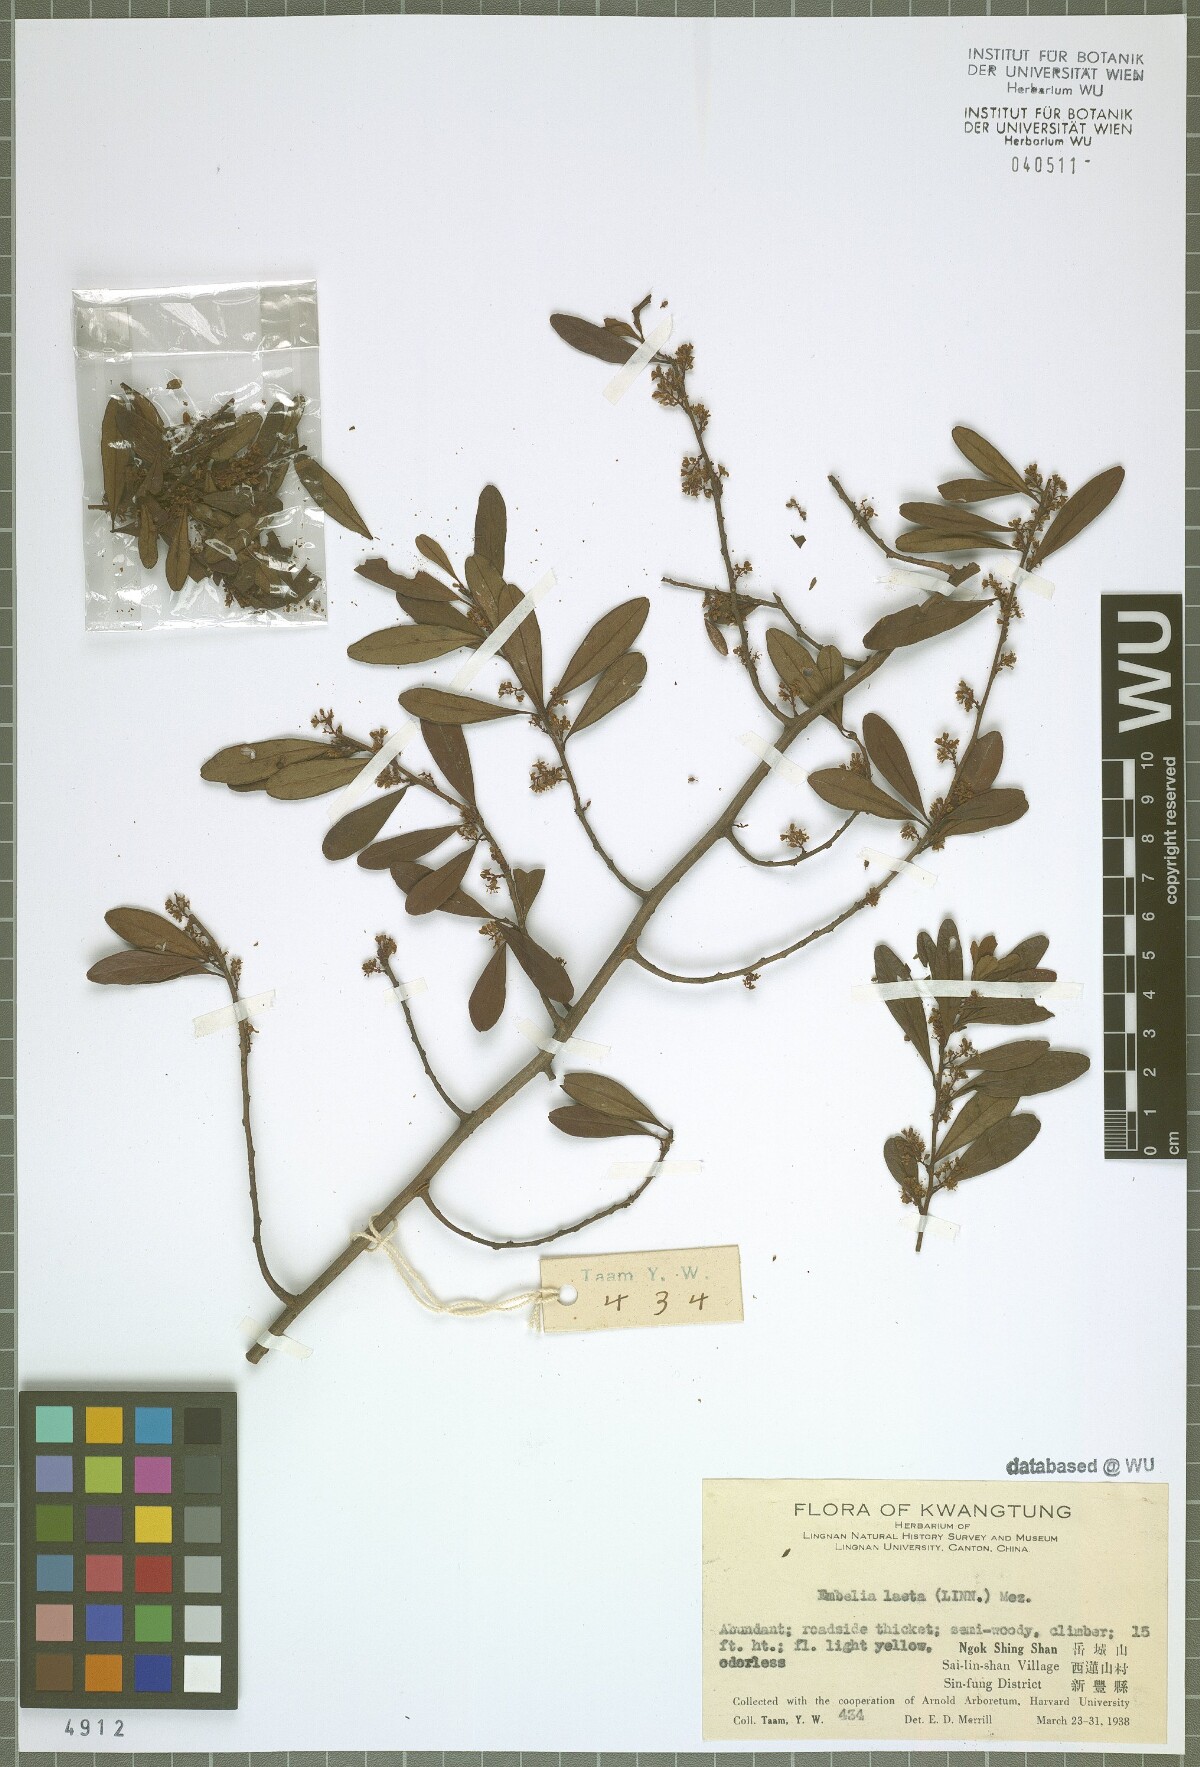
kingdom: Plantae
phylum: Tracheophyta
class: Magnoliopsida
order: Ericales
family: Primulaceae
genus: Embelia
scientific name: Embelia laeta
